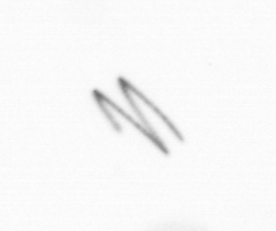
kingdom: Chromista
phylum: Ochrophyta
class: Bacillariophyceae
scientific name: Bacillariophyceae
